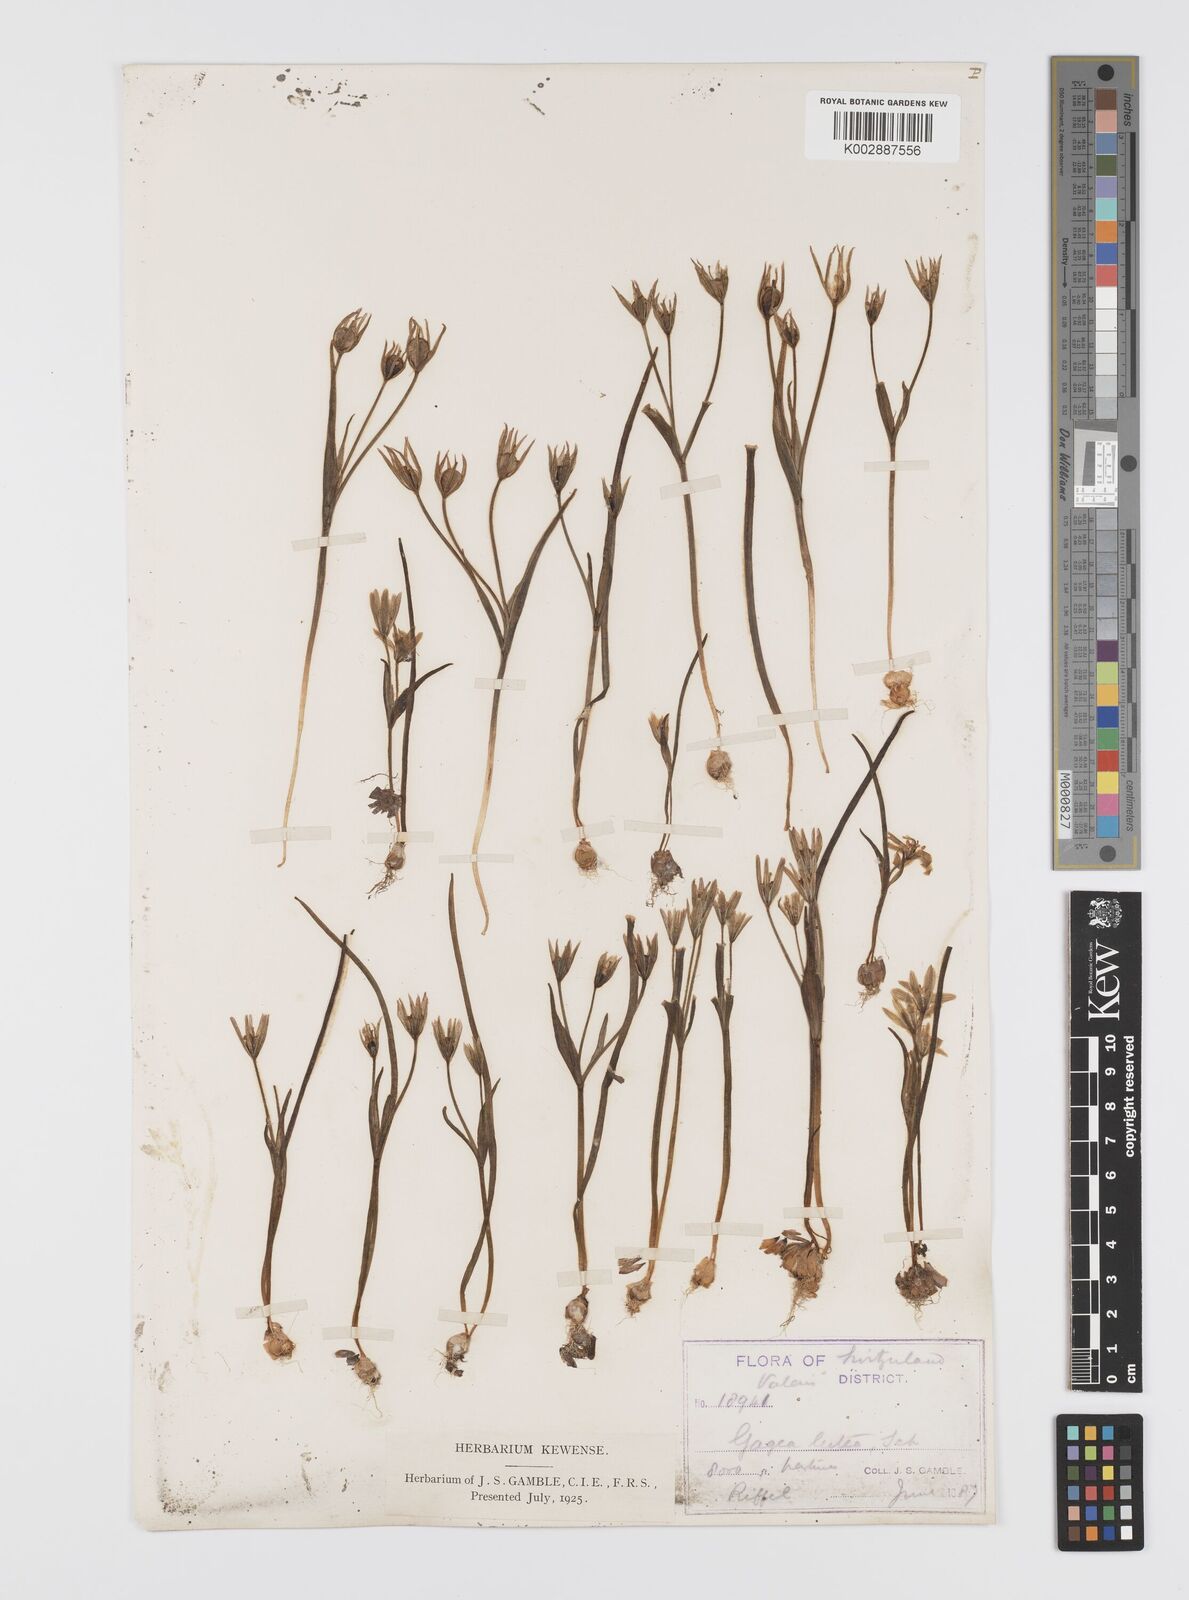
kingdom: Plantae
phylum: Tracheophyta
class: Liliopsida
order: Liliales
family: Liliaceae
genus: Gagea
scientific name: Gagea lutea
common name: Yellow star-of-bethlehem
